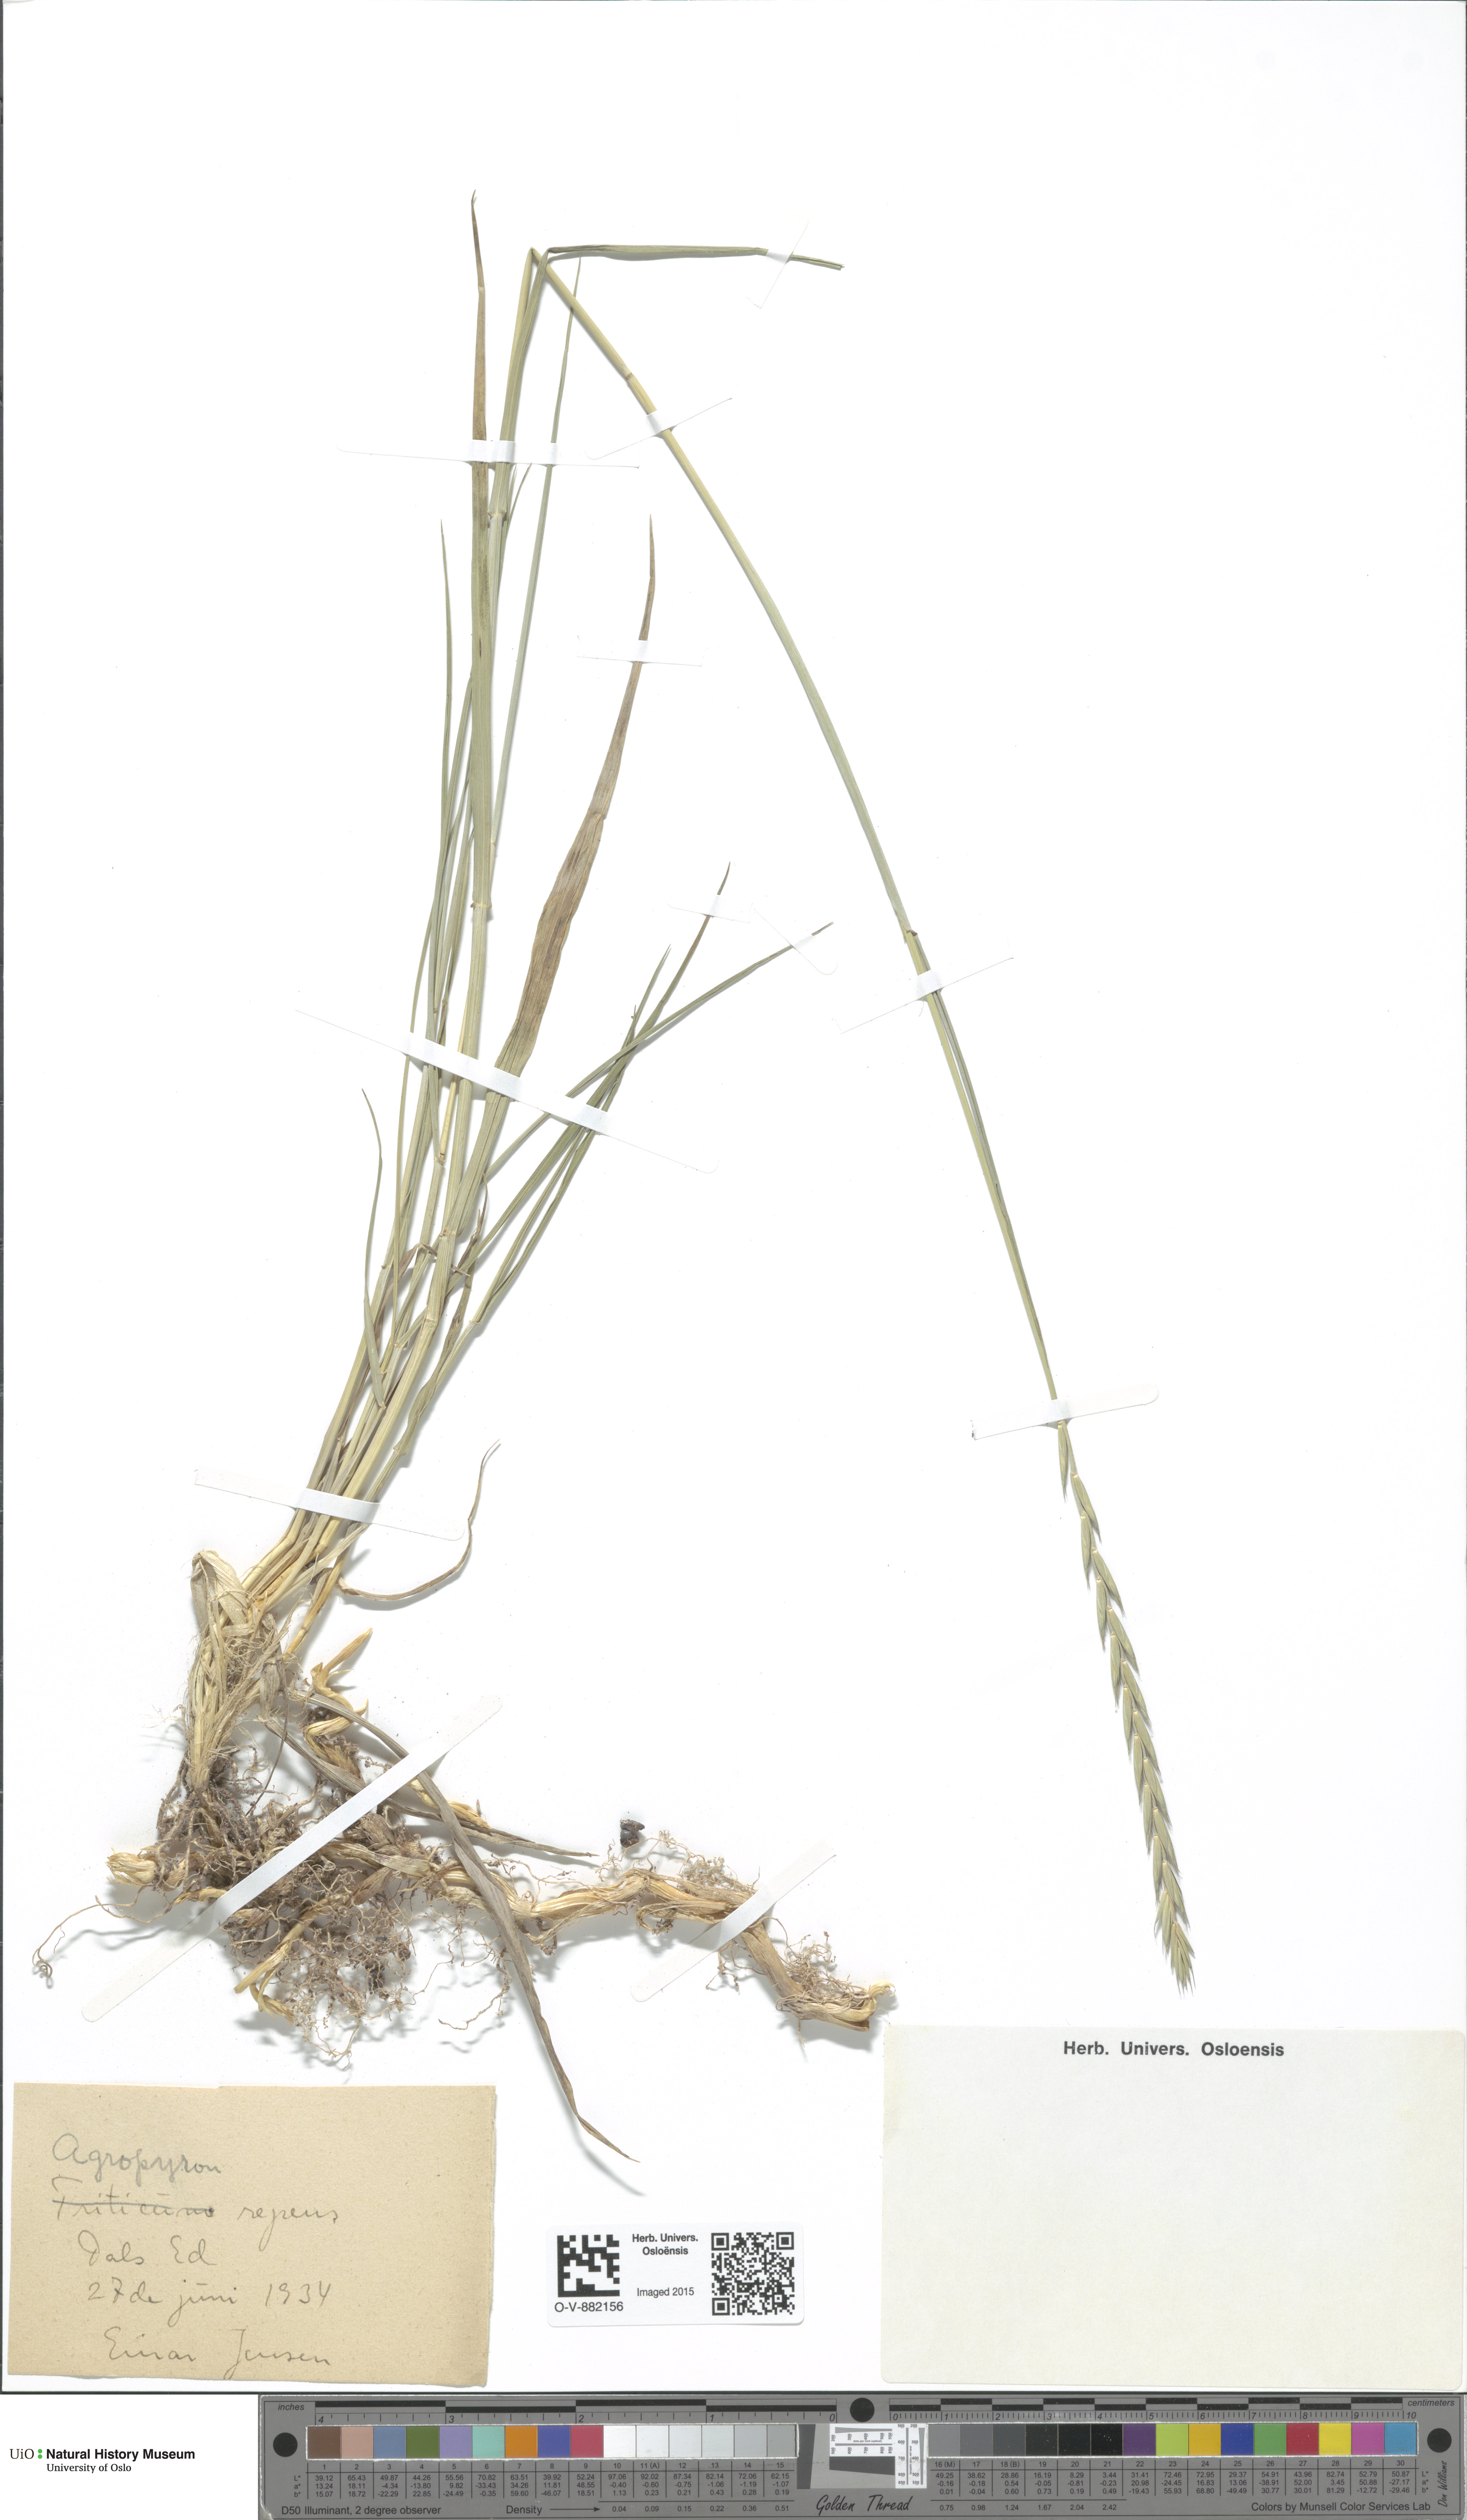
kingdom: Plantae
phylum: Tracheophyta
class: Liliopsida
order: Poales
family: Poaceae
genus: Elymus
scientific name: Elymus repens
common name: Quackgrass
